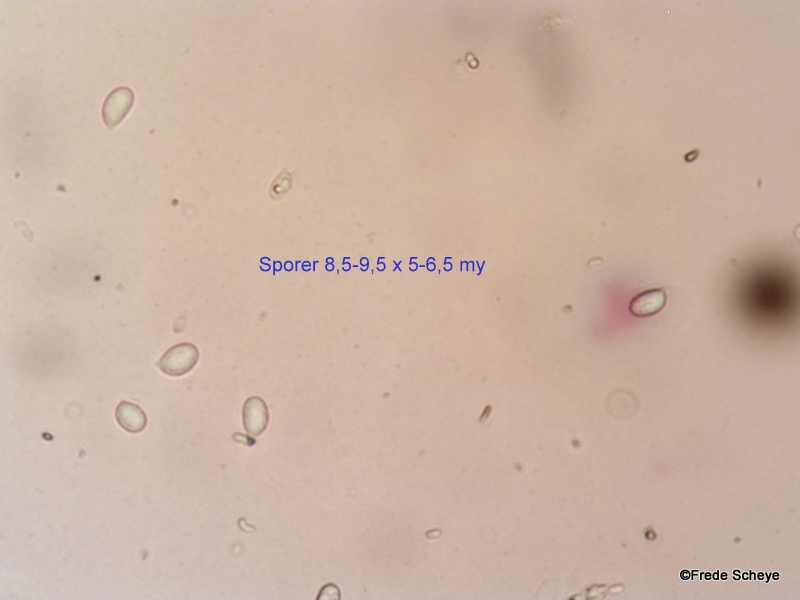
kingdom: Fungi
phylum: Basidiomycota
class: Agaricomycetes
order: Agaricales
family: Hygrophoraceae
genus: Arrhenia
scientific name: Arrhenia retiruga
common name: lille fontænehat
